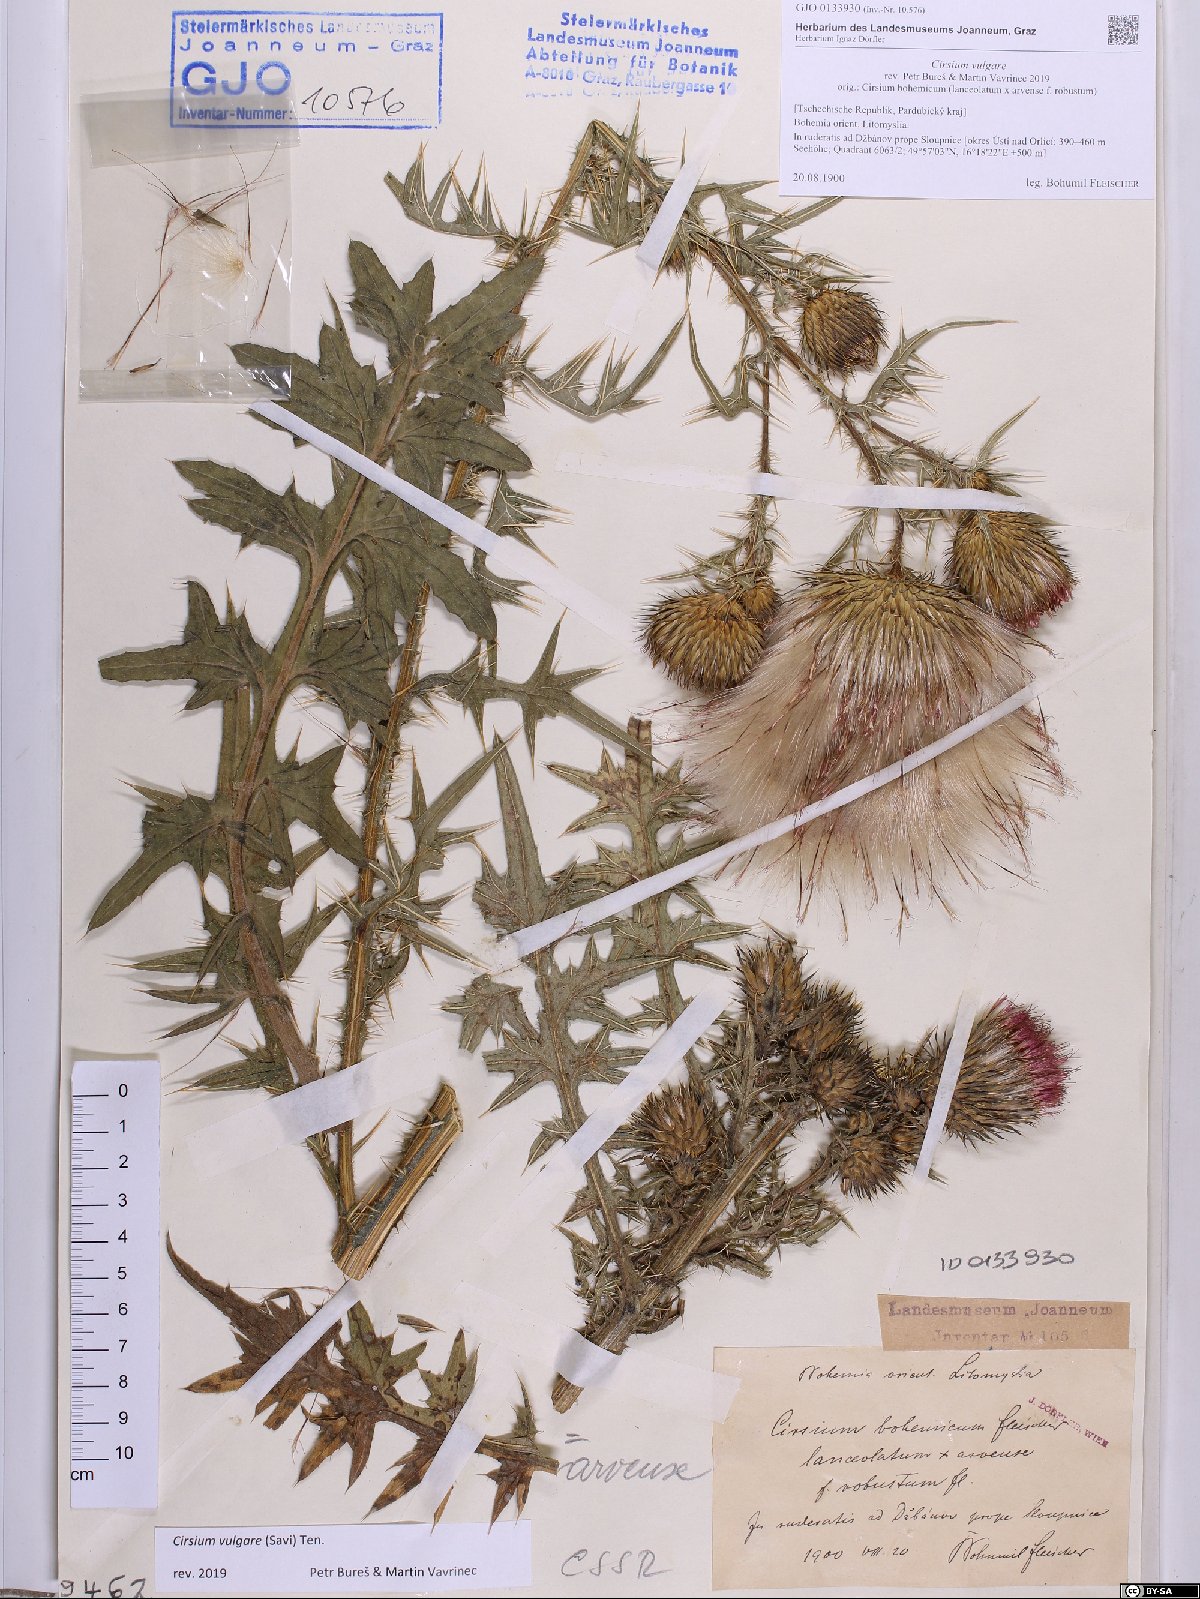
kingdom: Plantae
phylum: Tracheophyta
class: Magnoliopsida
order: Asterales
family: Asteraceae
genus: Cirsium
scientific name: Cirsium vulgare
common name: Bull thistle
